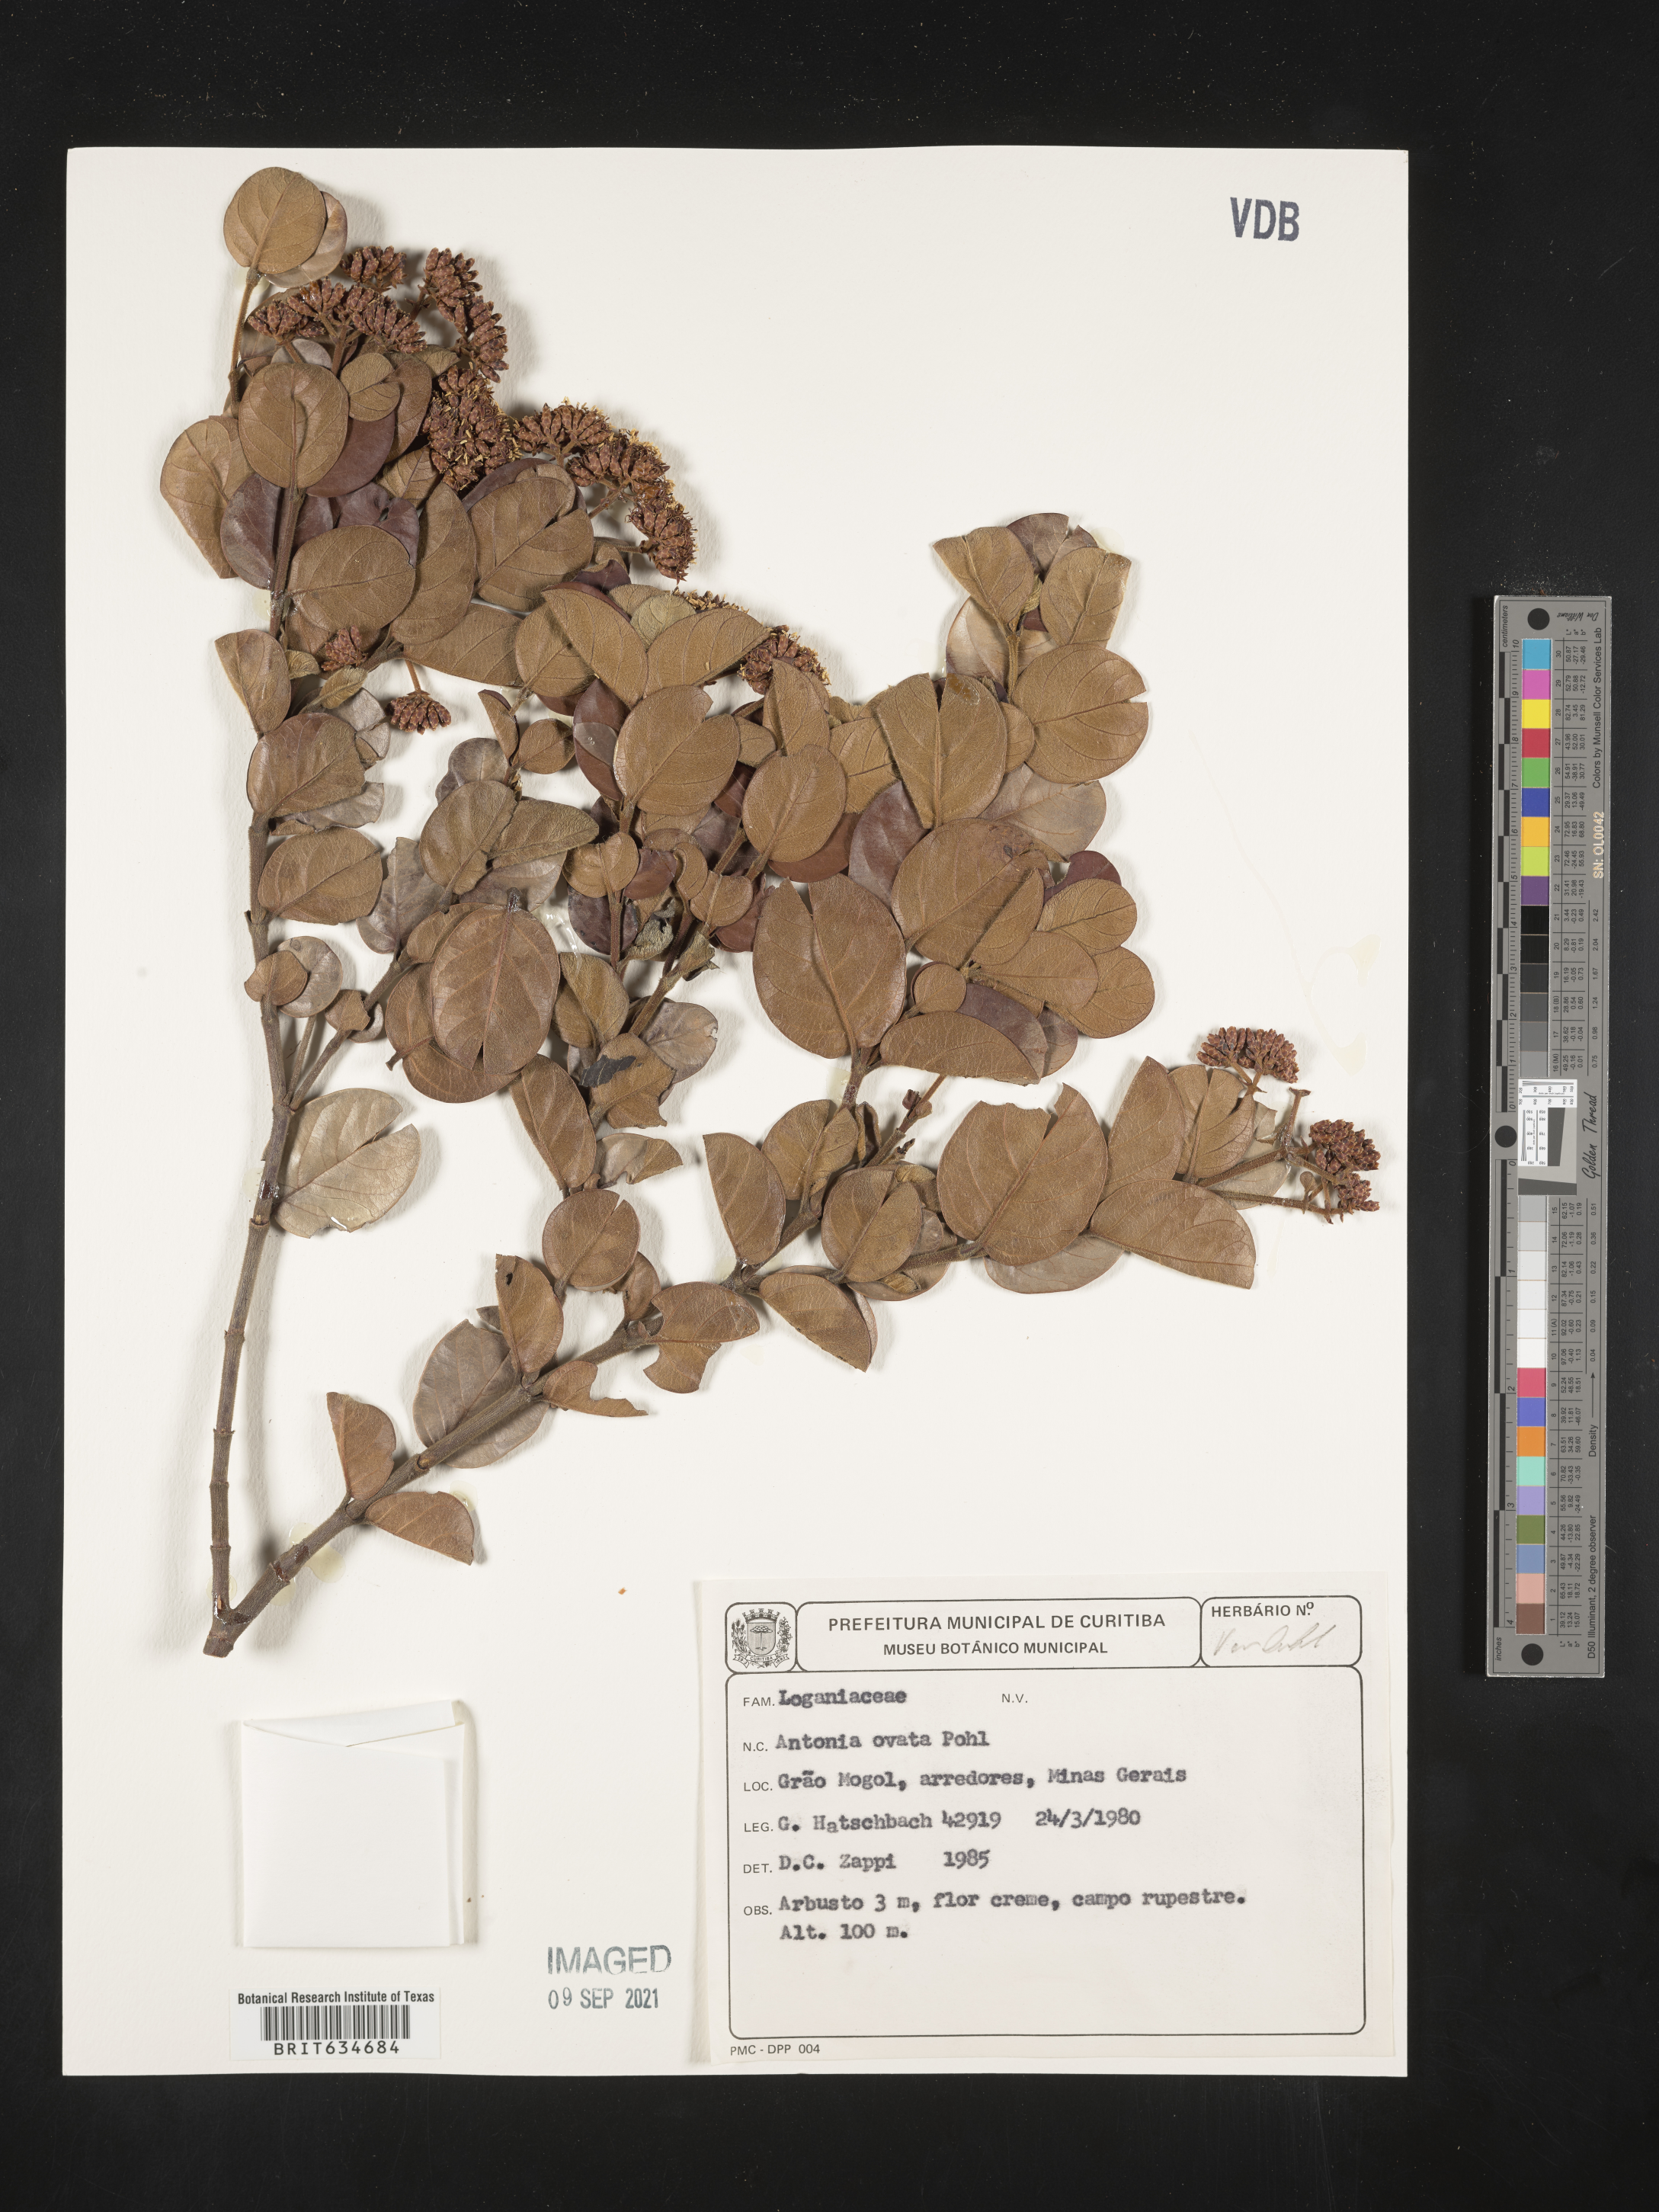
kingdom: Plantae
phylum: Tracheophyta
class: Magnoliopsida
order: Gentianales
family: Loganiaceae
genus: Antonia
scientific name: Antonia
